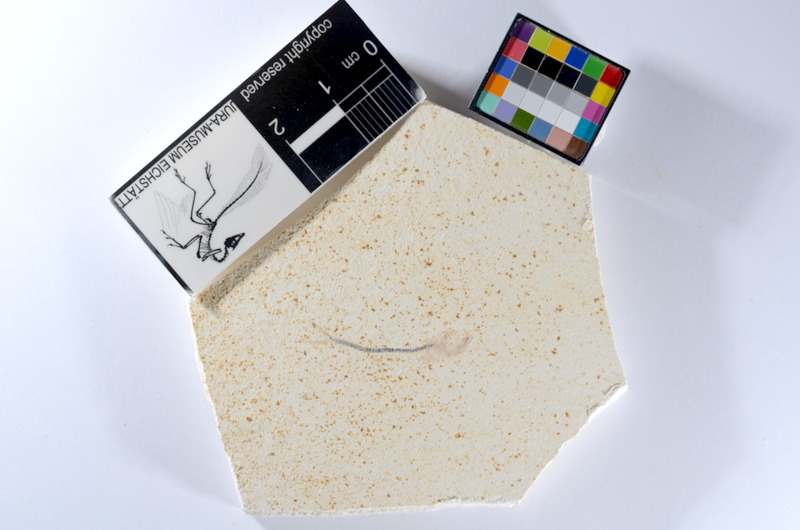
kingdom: Animalia
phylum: Chordata
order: Salmoniformes
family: Orthogonikleithridae
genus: Orthogonikleithrus
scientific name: Orthogonikleithrus hoelli
